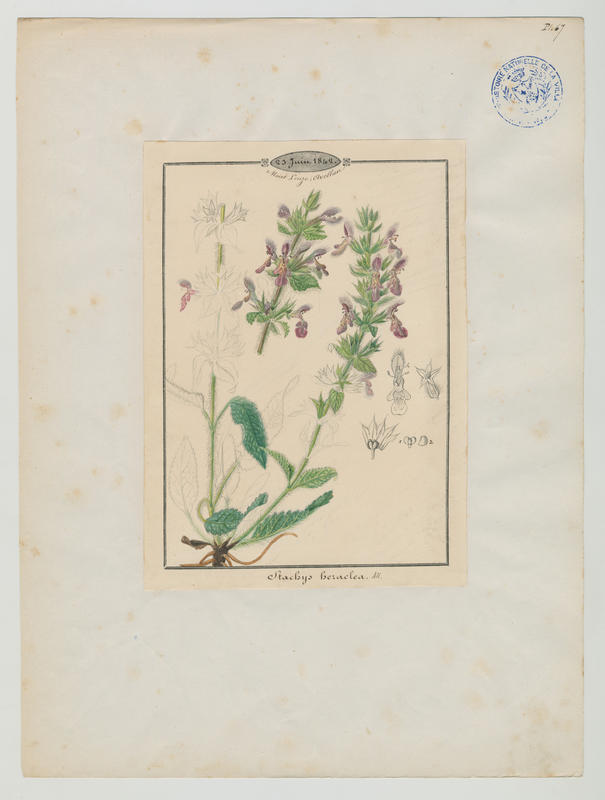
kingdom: Plantae
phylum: Tracheophyta
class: Magnoliopsida
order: Lamiales
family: Lamiaceae
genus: Stachys
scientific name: Stachys heraclea
